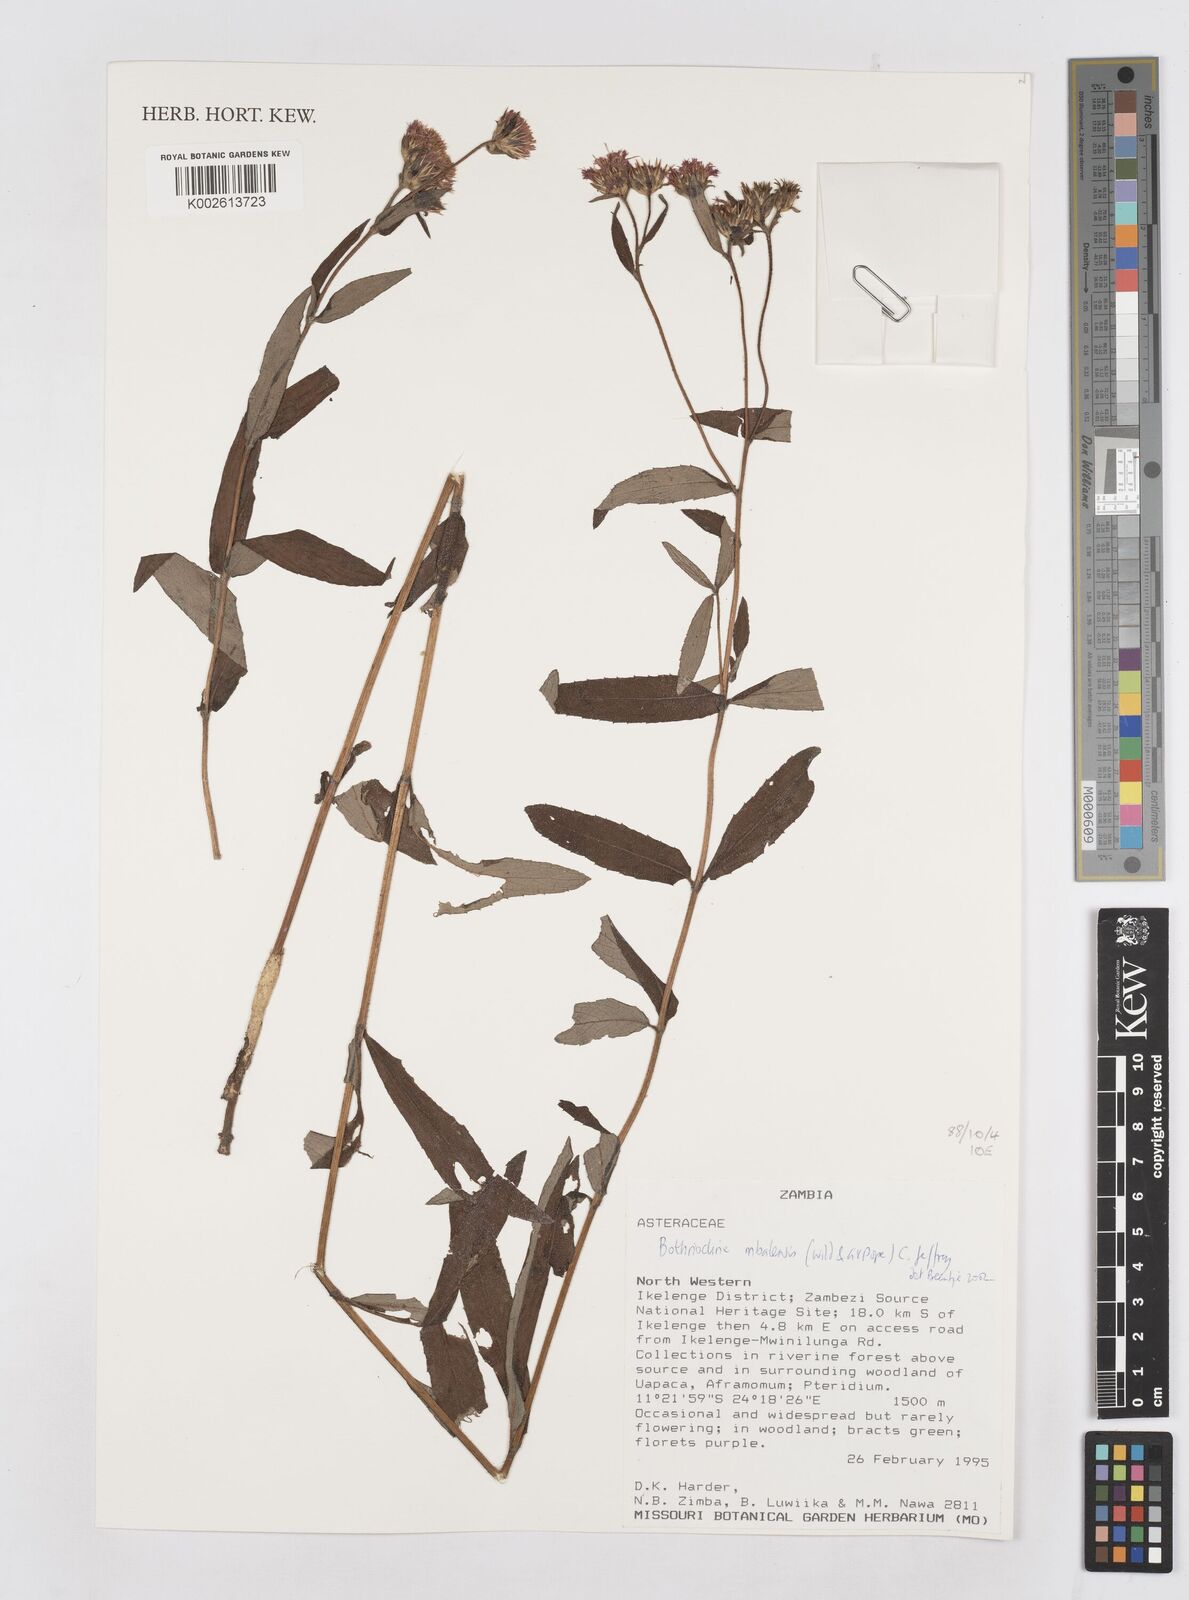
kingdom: Plantae
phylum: Tracheophyta
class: Magnoliopsida
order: Asterales
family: Asteraceae
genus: Bothriocline
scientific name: Bothriocline mbalensis
